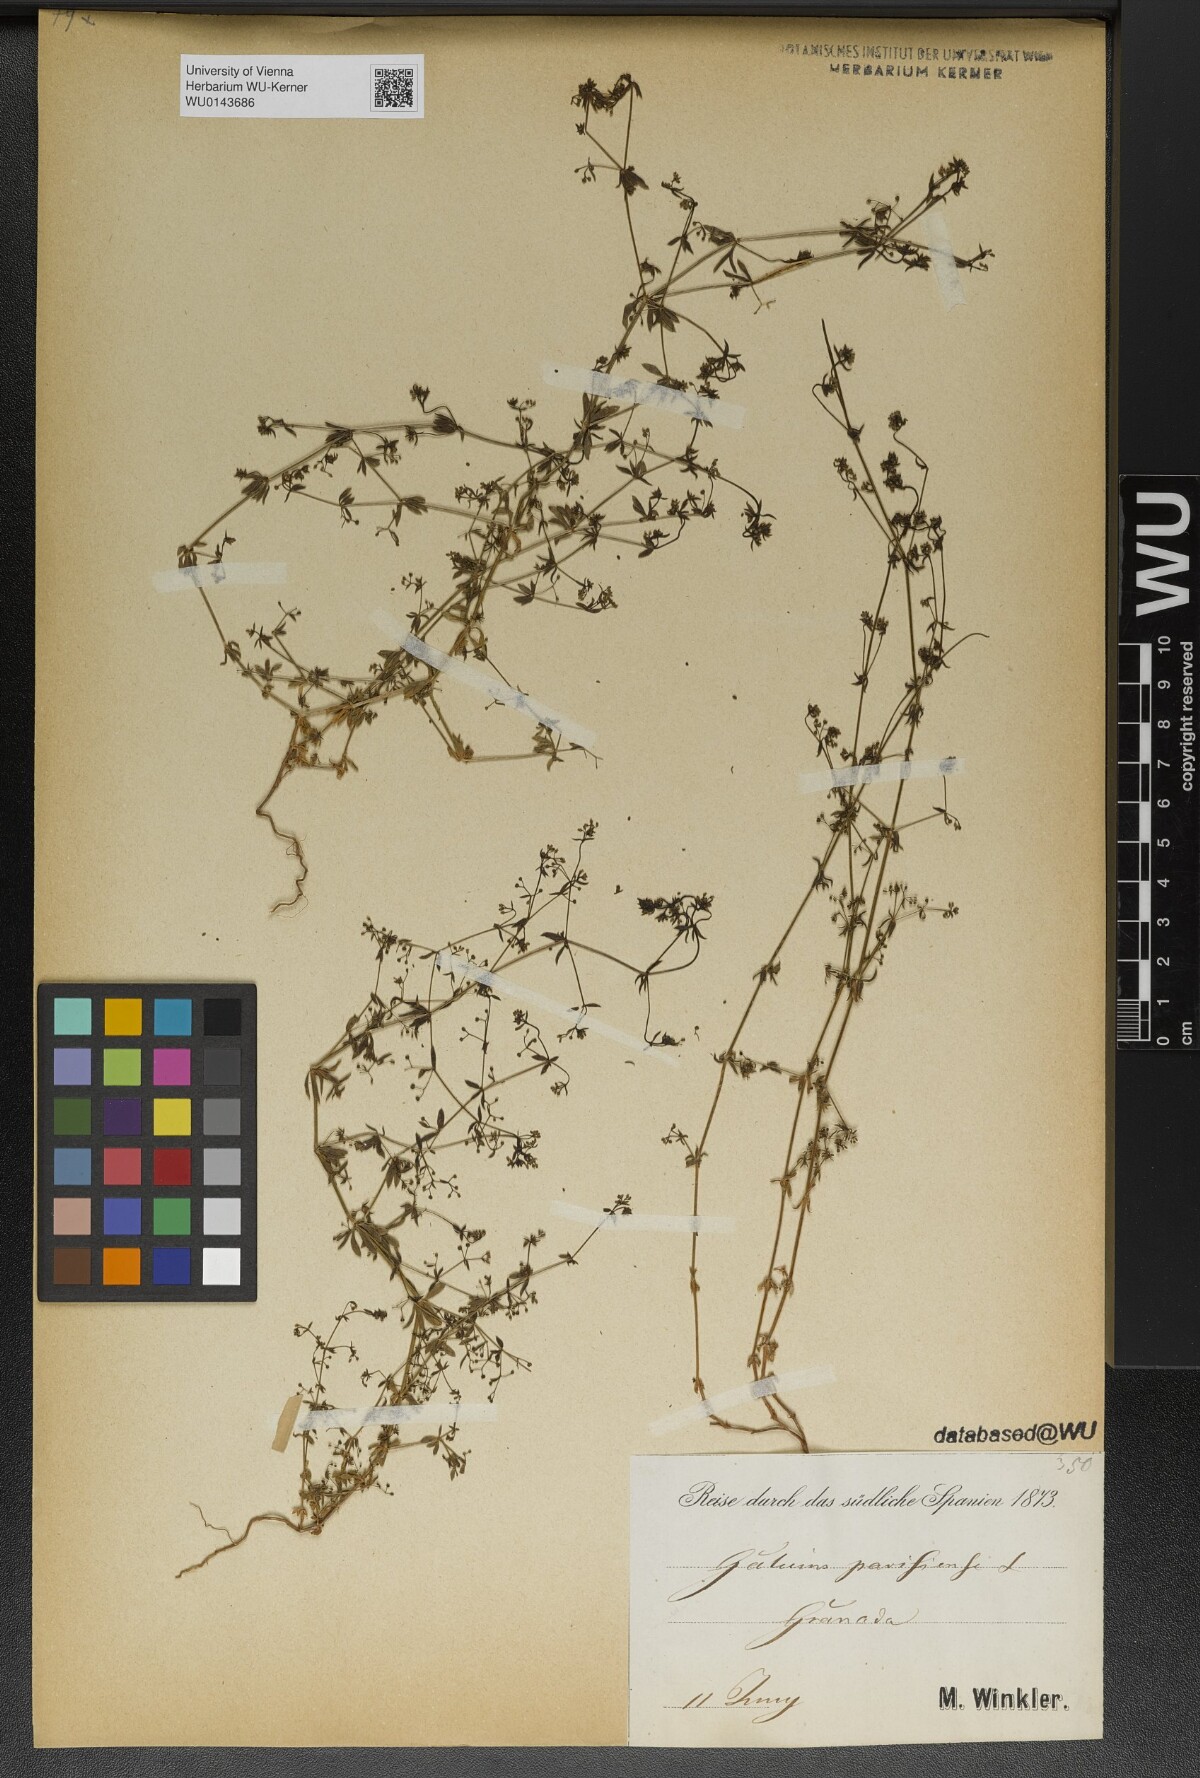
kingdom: Plantae
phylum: Tracheophyta
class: Magnoliopsida
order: Gentianales
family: Rubiaceae
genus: Galium
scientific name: Galium parisiense
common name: Wall bedstraw
